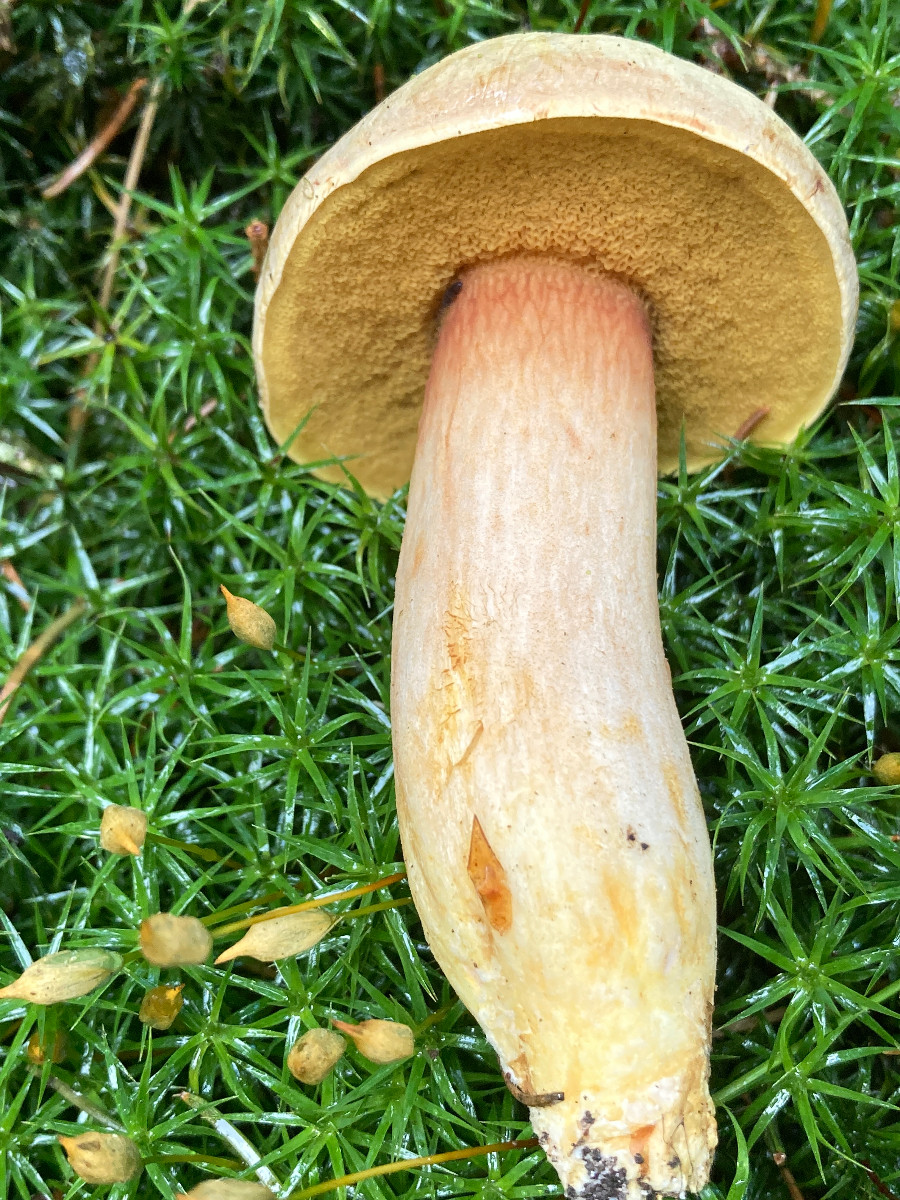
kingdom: Fungi
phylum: Basidiomycota
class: Agaricomycetes
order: Boletales
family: Boletaceae
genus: Xerocomus
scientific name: Xerocomus ferrugineus
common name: vaskeskinds-rørhat
